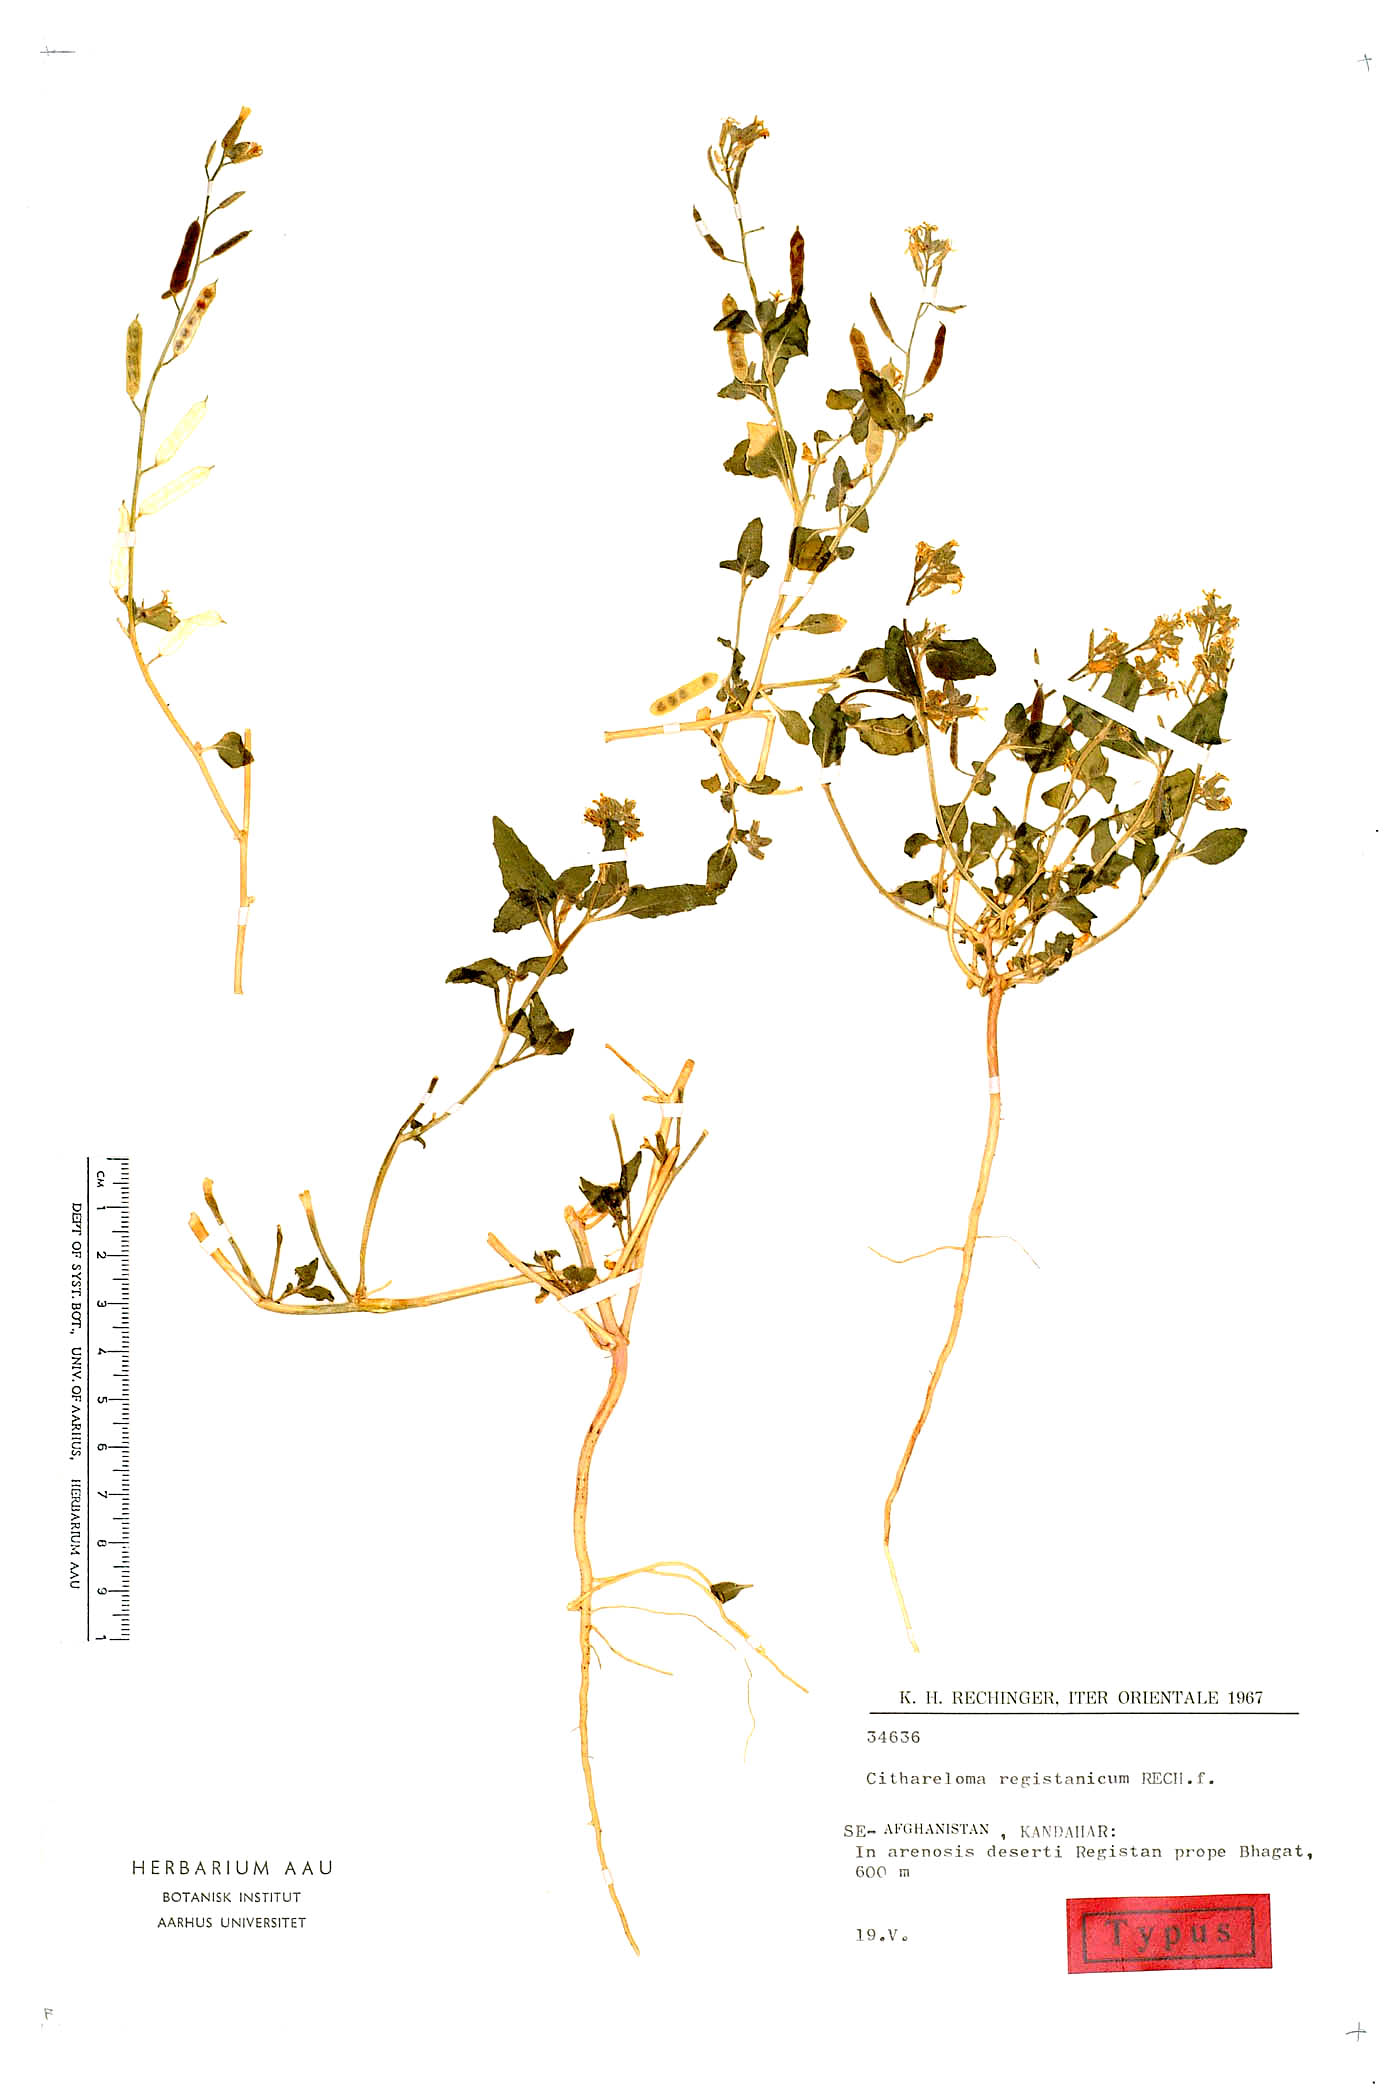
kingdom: Plantae
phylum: Tracheophyta
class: Magnoliopsida
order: Brassicales
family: Brassicaceae
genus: Cithareloma
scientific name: Cithareloma lehmannii
